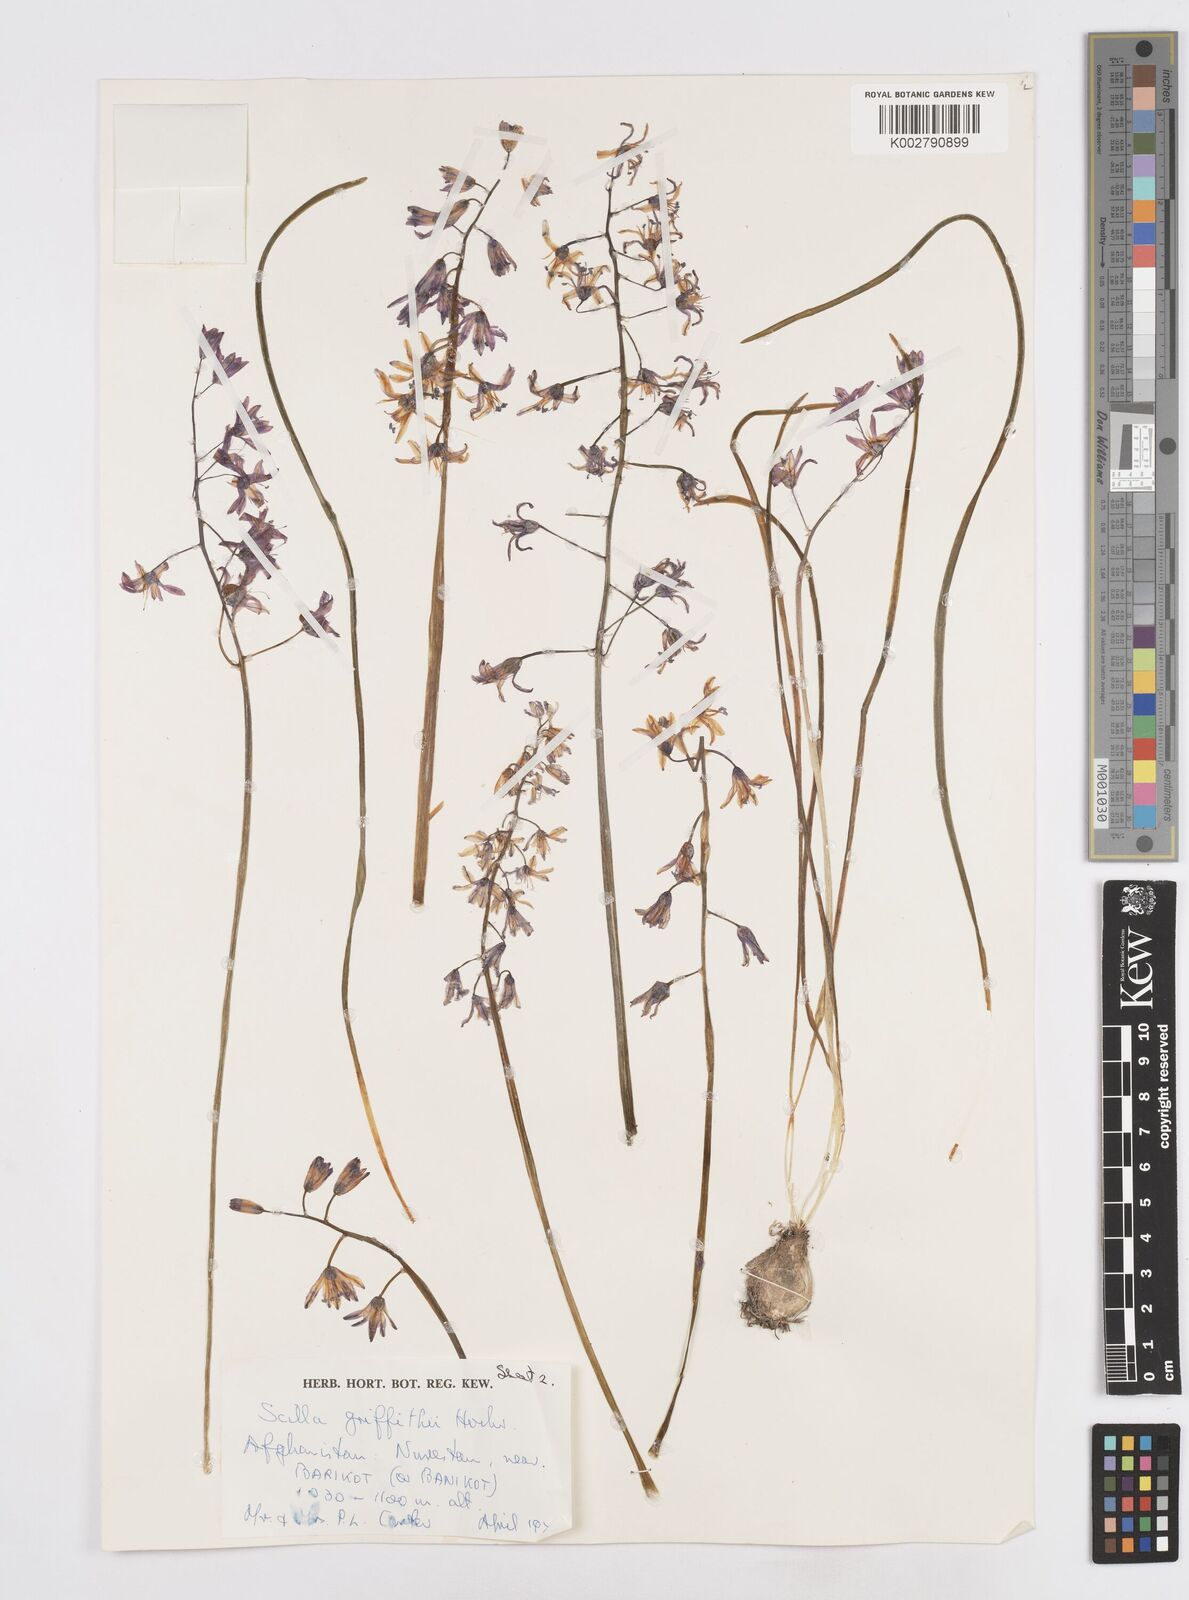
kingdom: Plantae
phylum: Tracheophyta
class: Liliopsida
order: Asparagales
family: Asparagaceae
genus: Fessia
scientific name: Fessia purpurea
